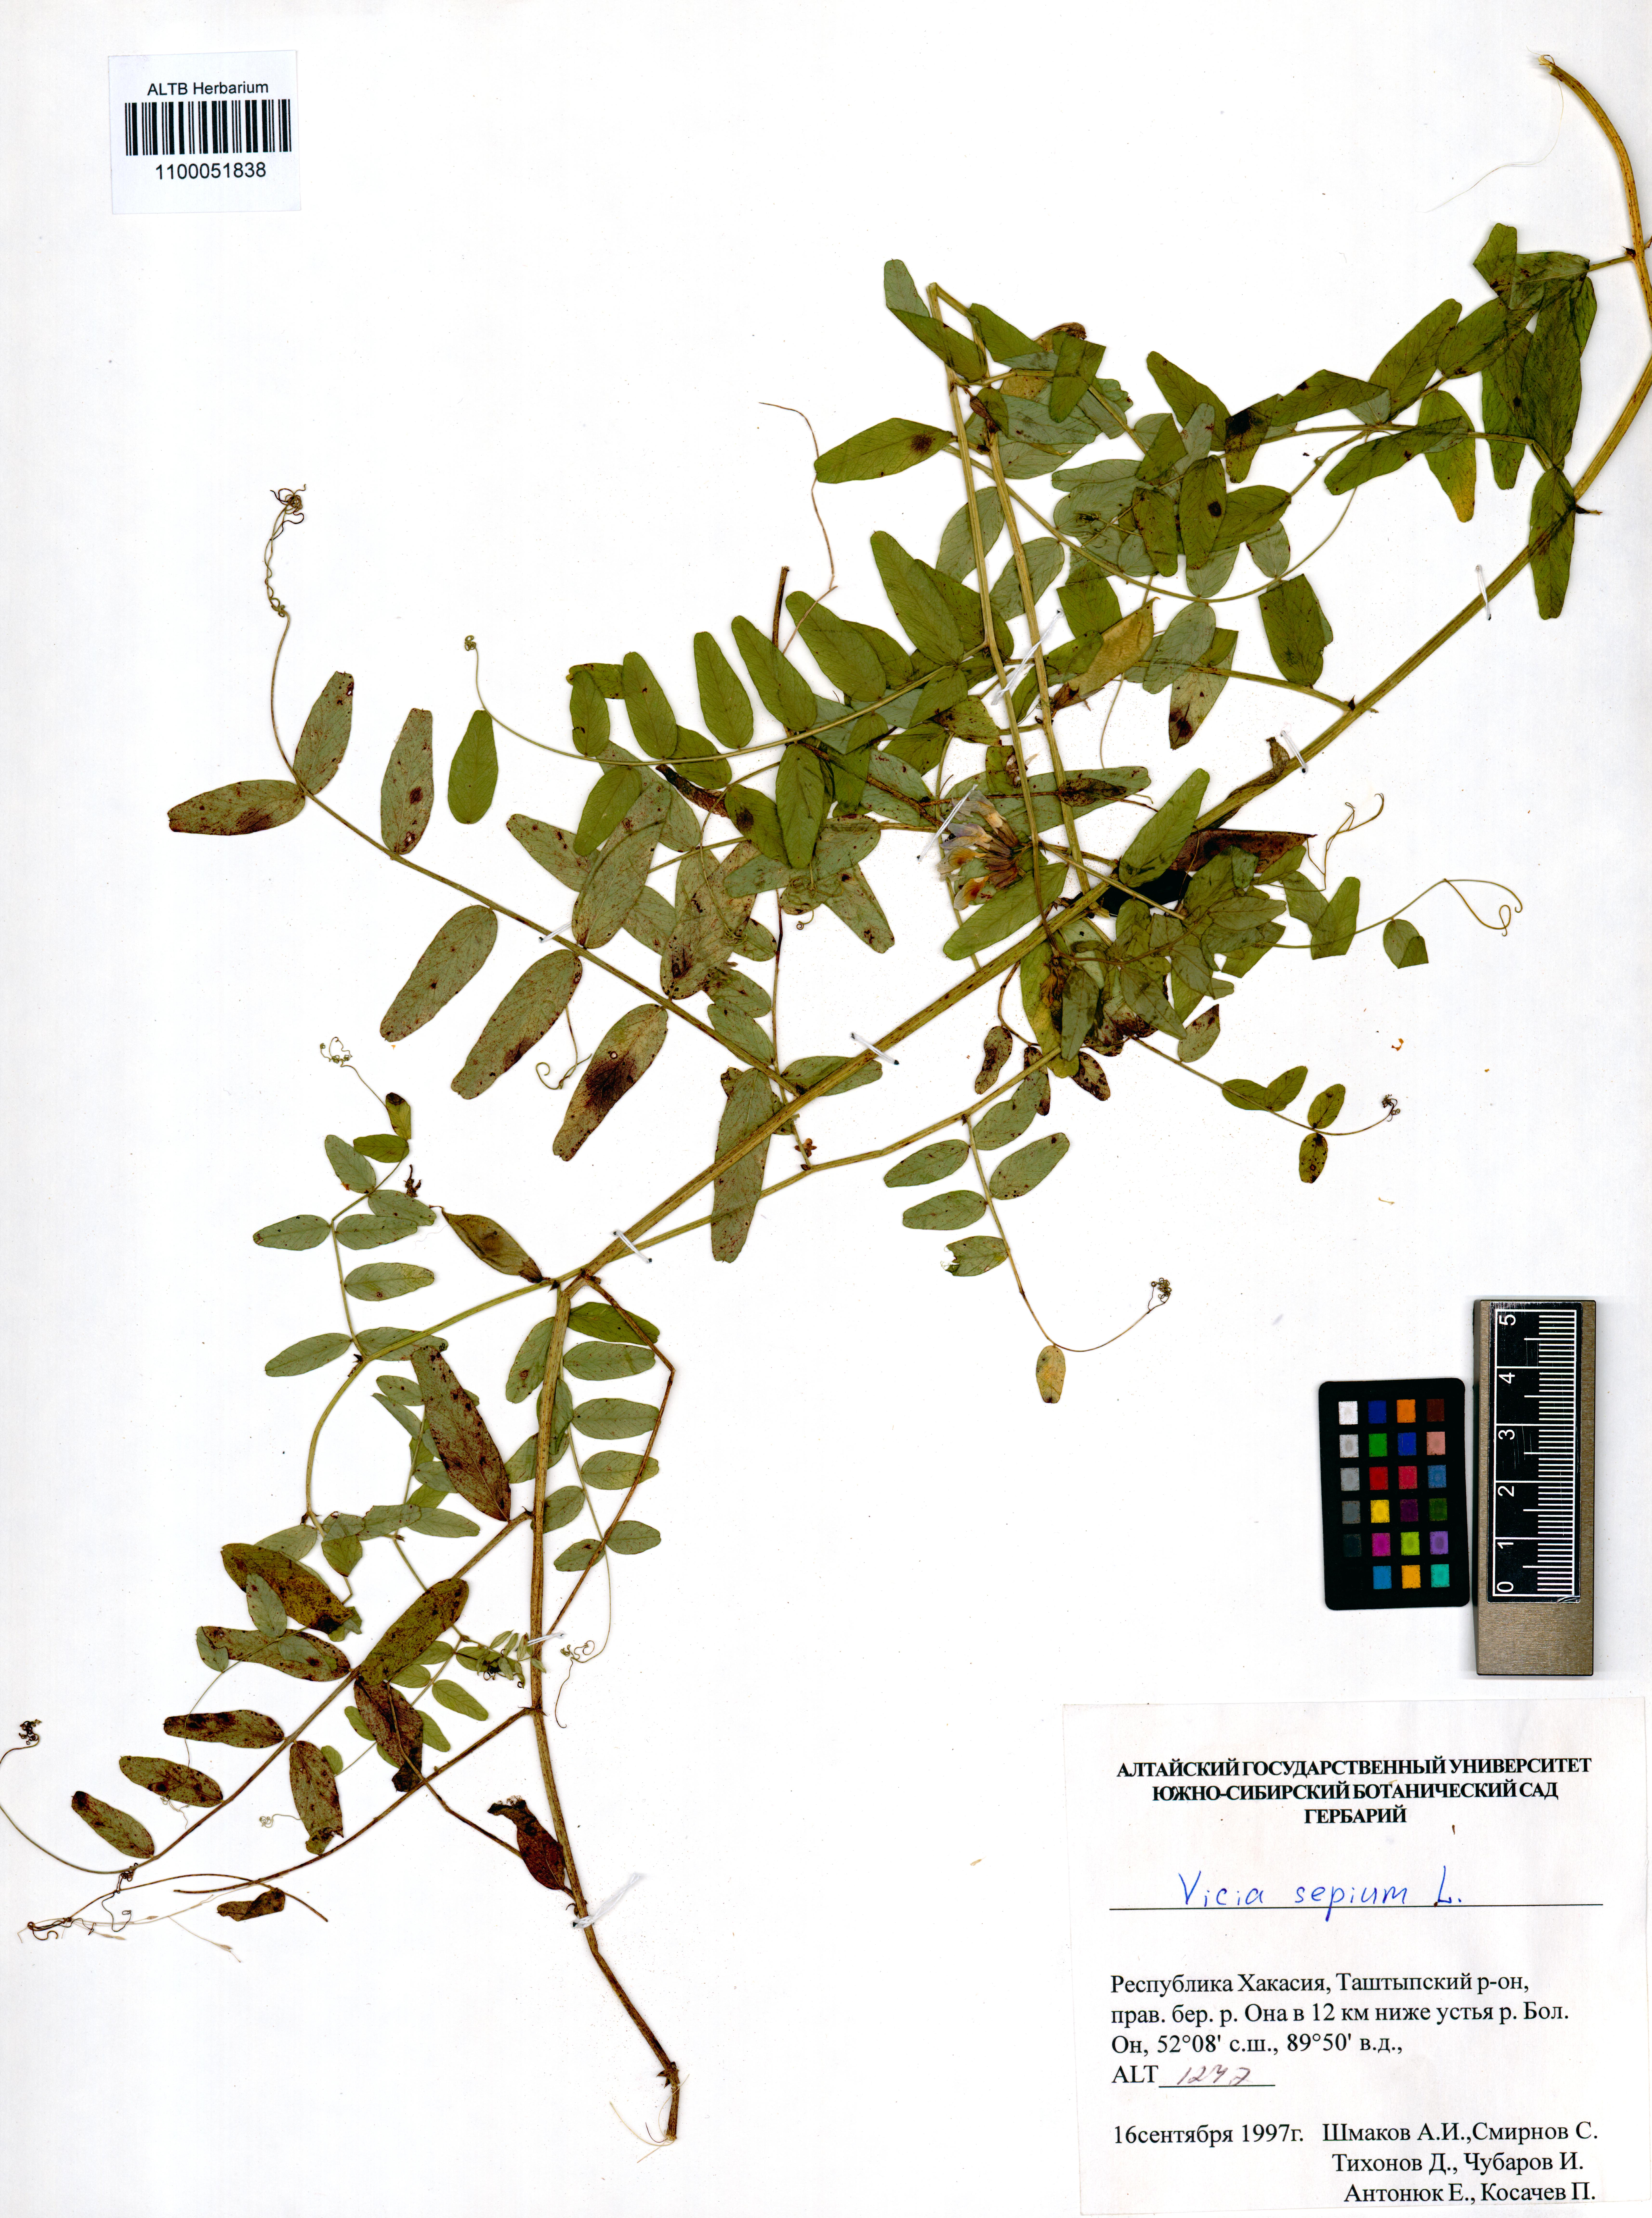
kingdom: Plantae
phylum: Tracheophyta
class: Magnoliopsida
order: Fabales
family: Fabaceae
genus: Vicia
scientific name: Vicia sepium
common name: Bush vetch
